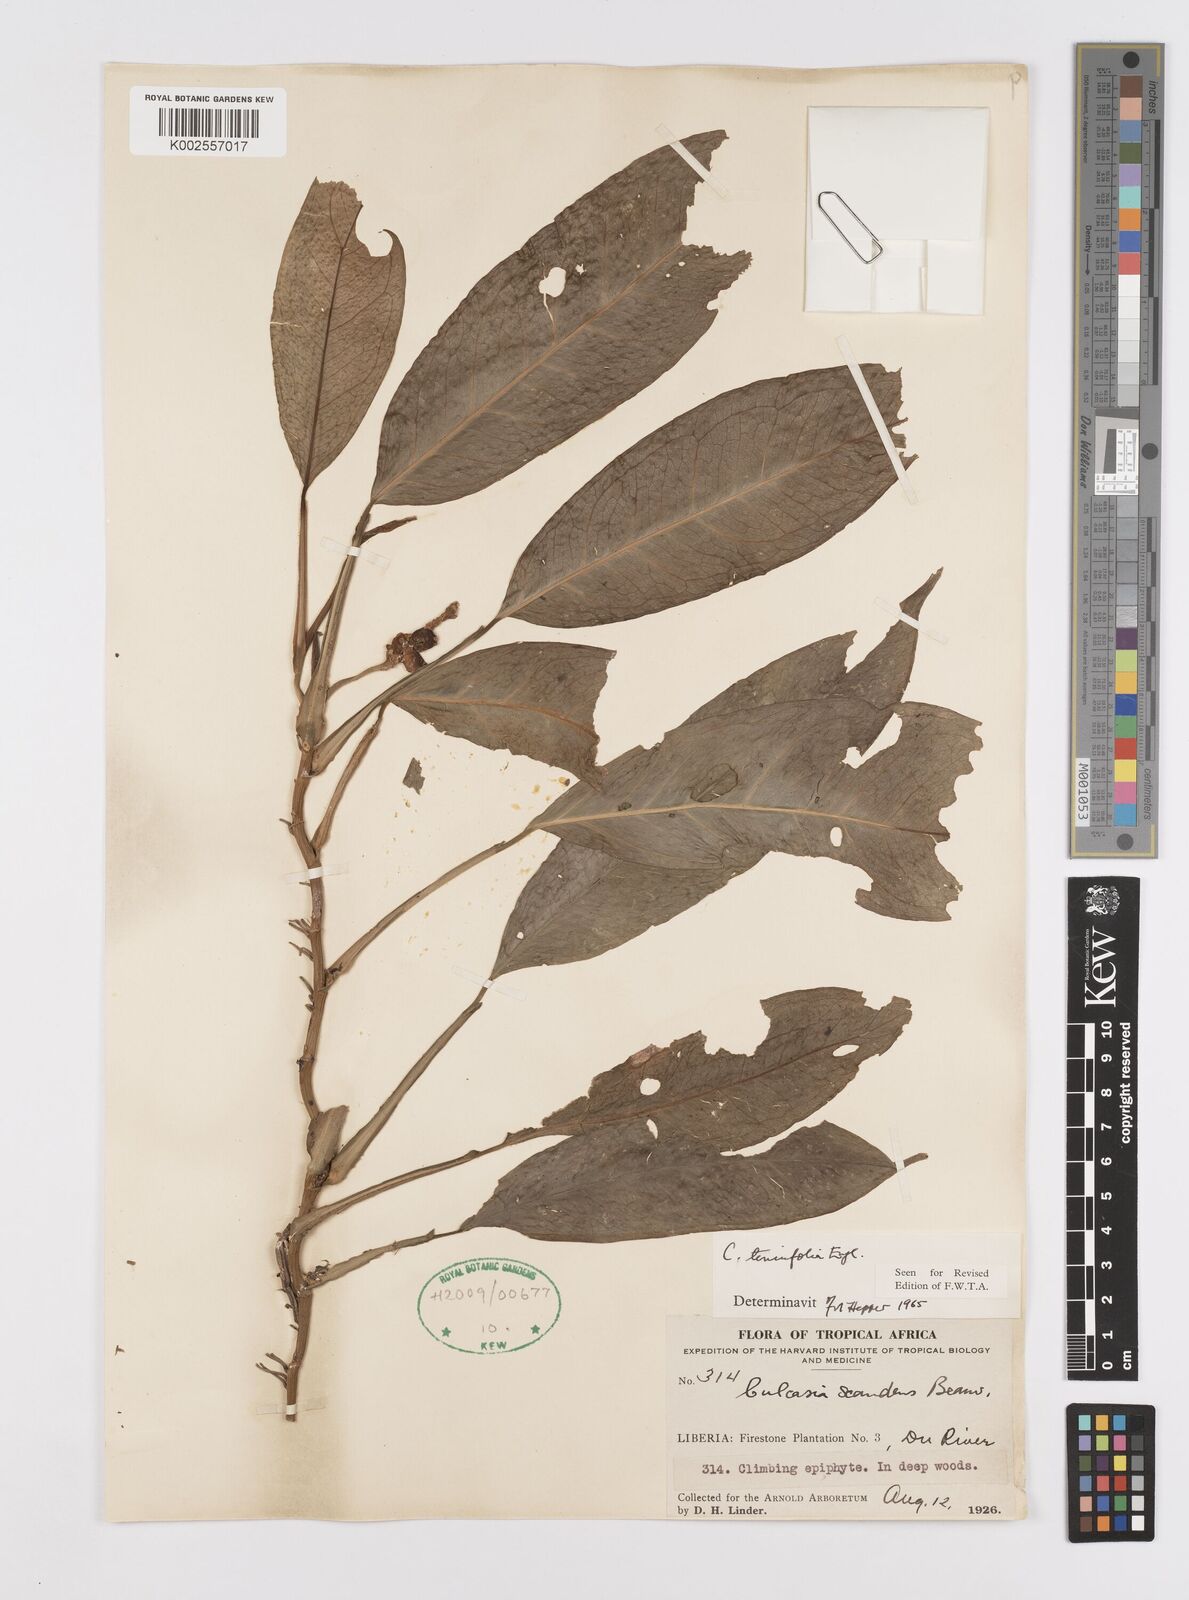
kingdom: Plantae
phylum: Tracheophyta
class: Liliopsida
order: Alismatales
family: Araceae
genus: Culcasia
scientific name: Culcasia tenuifolia
